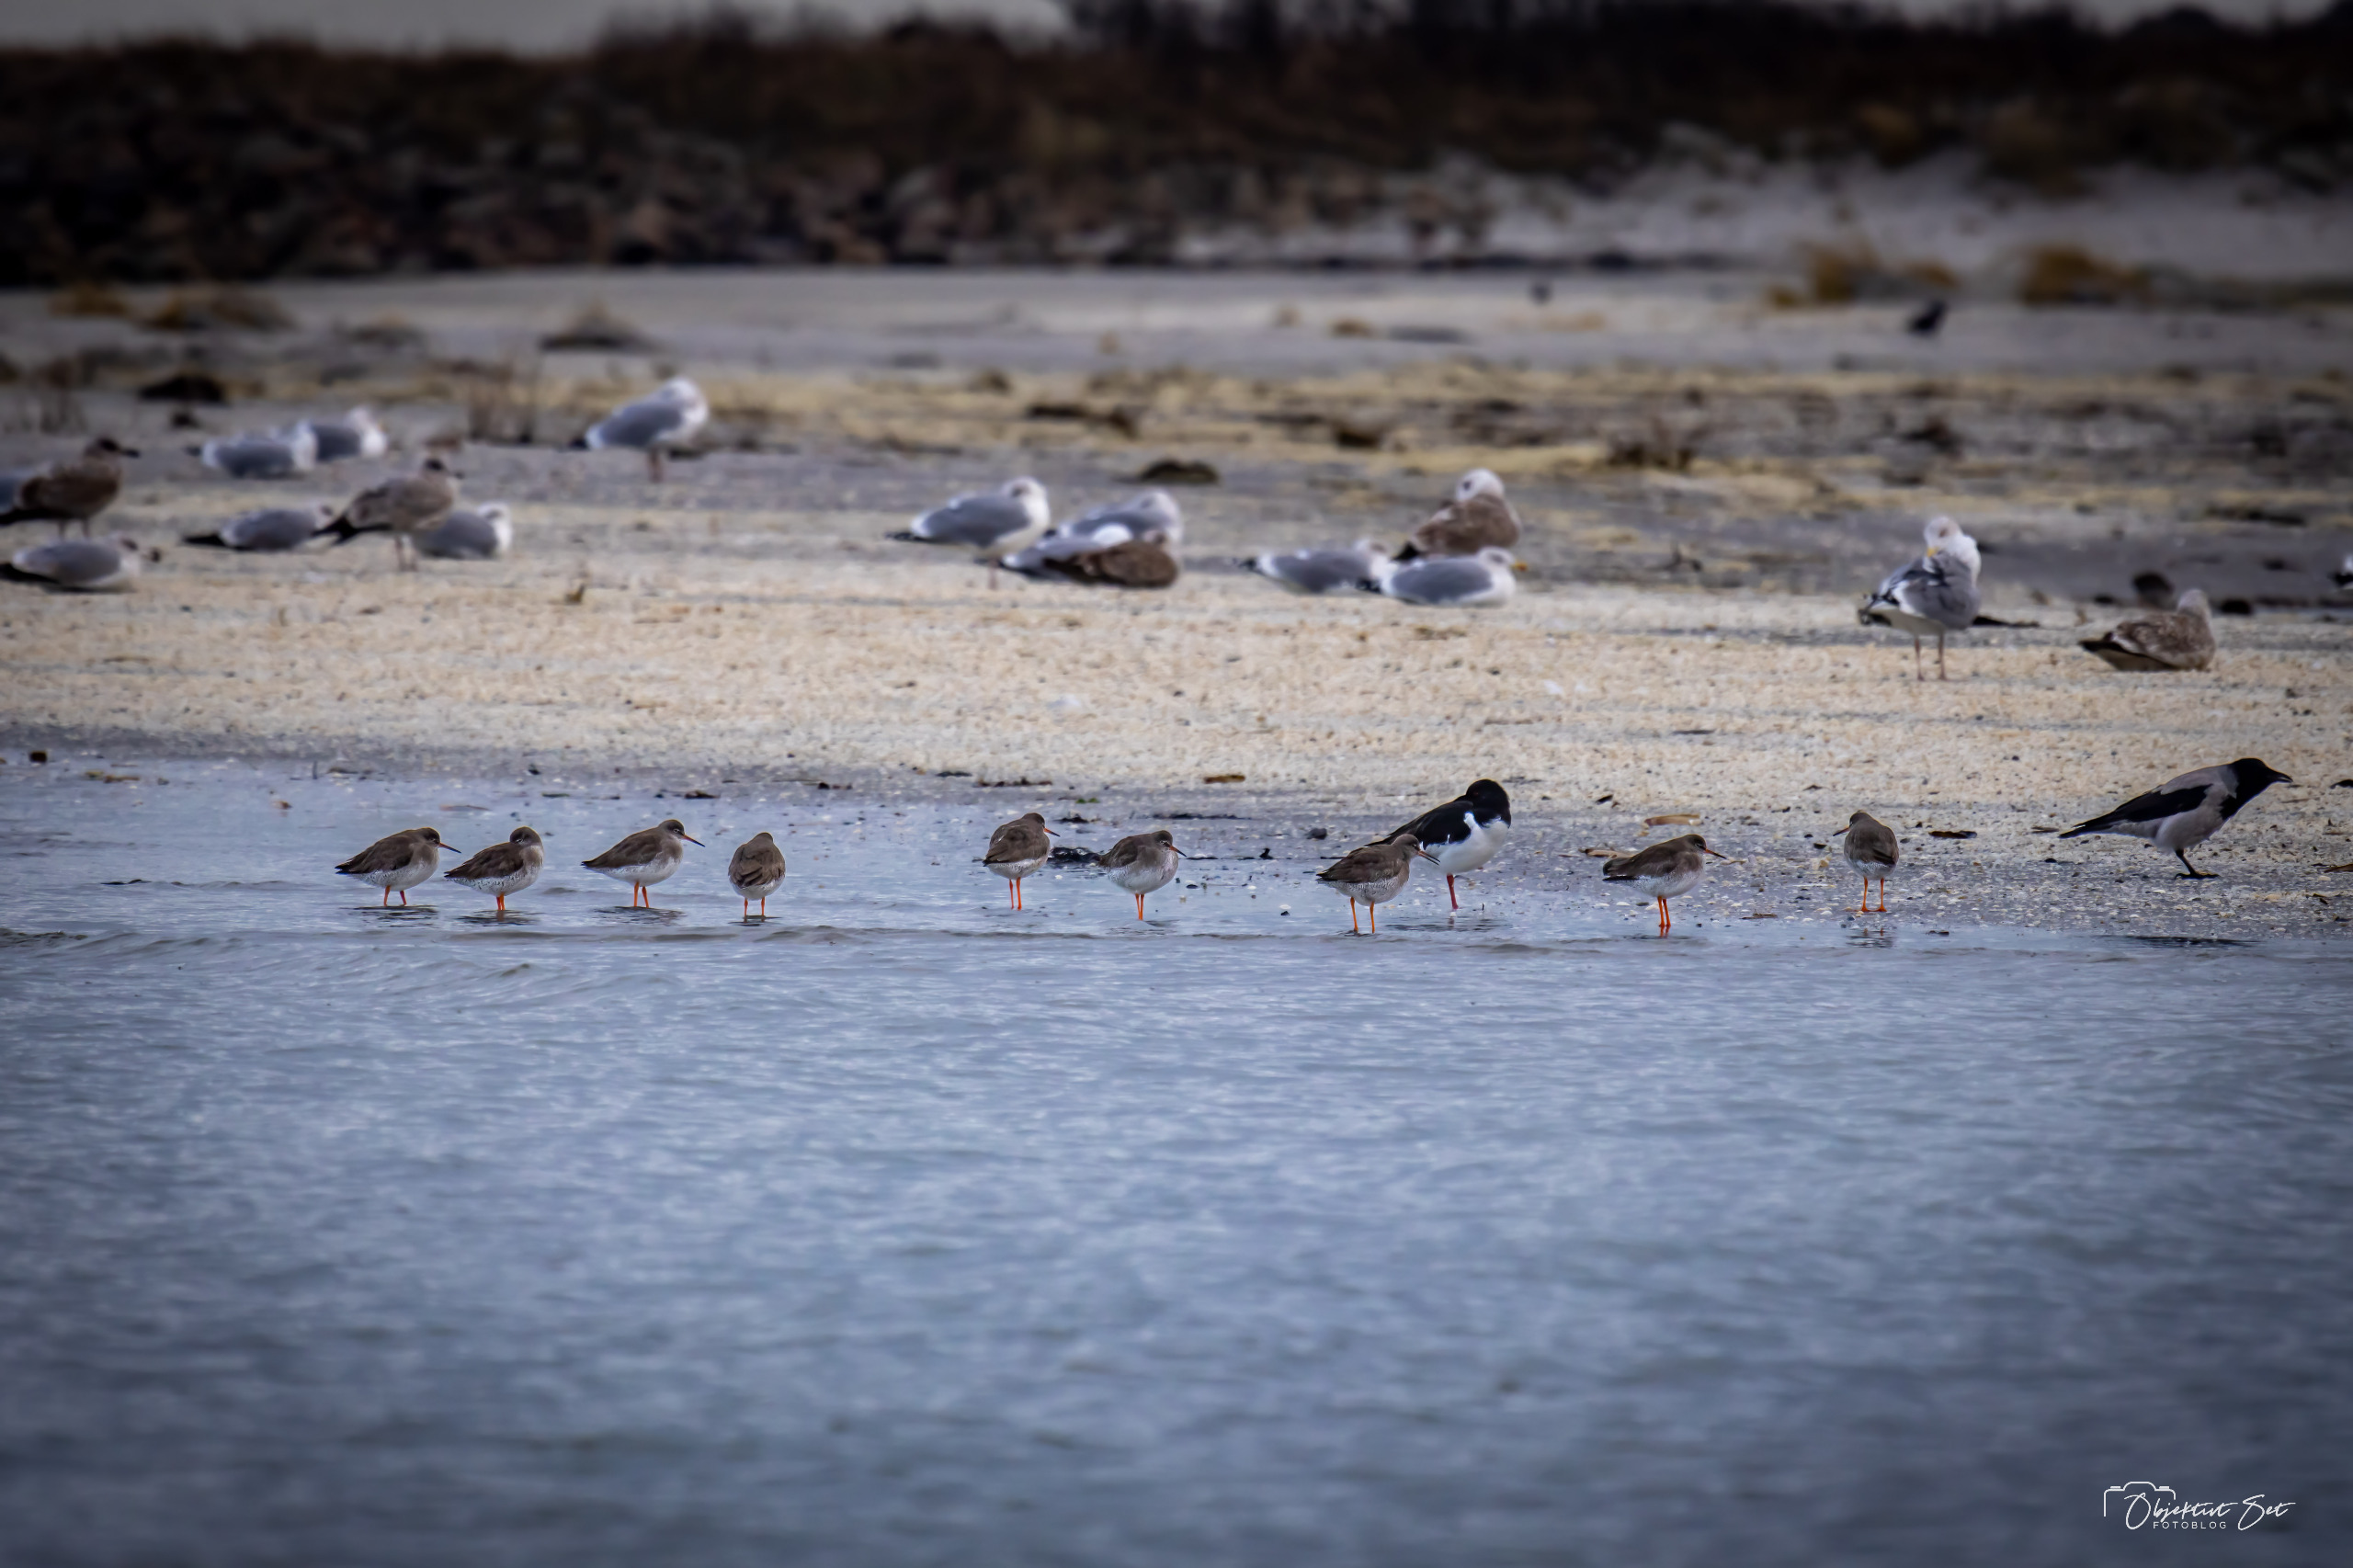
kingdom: Animalia
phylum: Chordata
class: Aves
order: Charadriiformes
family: Scolopacidae
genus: Tringa
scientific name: Tringa totanus
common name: Rødben
